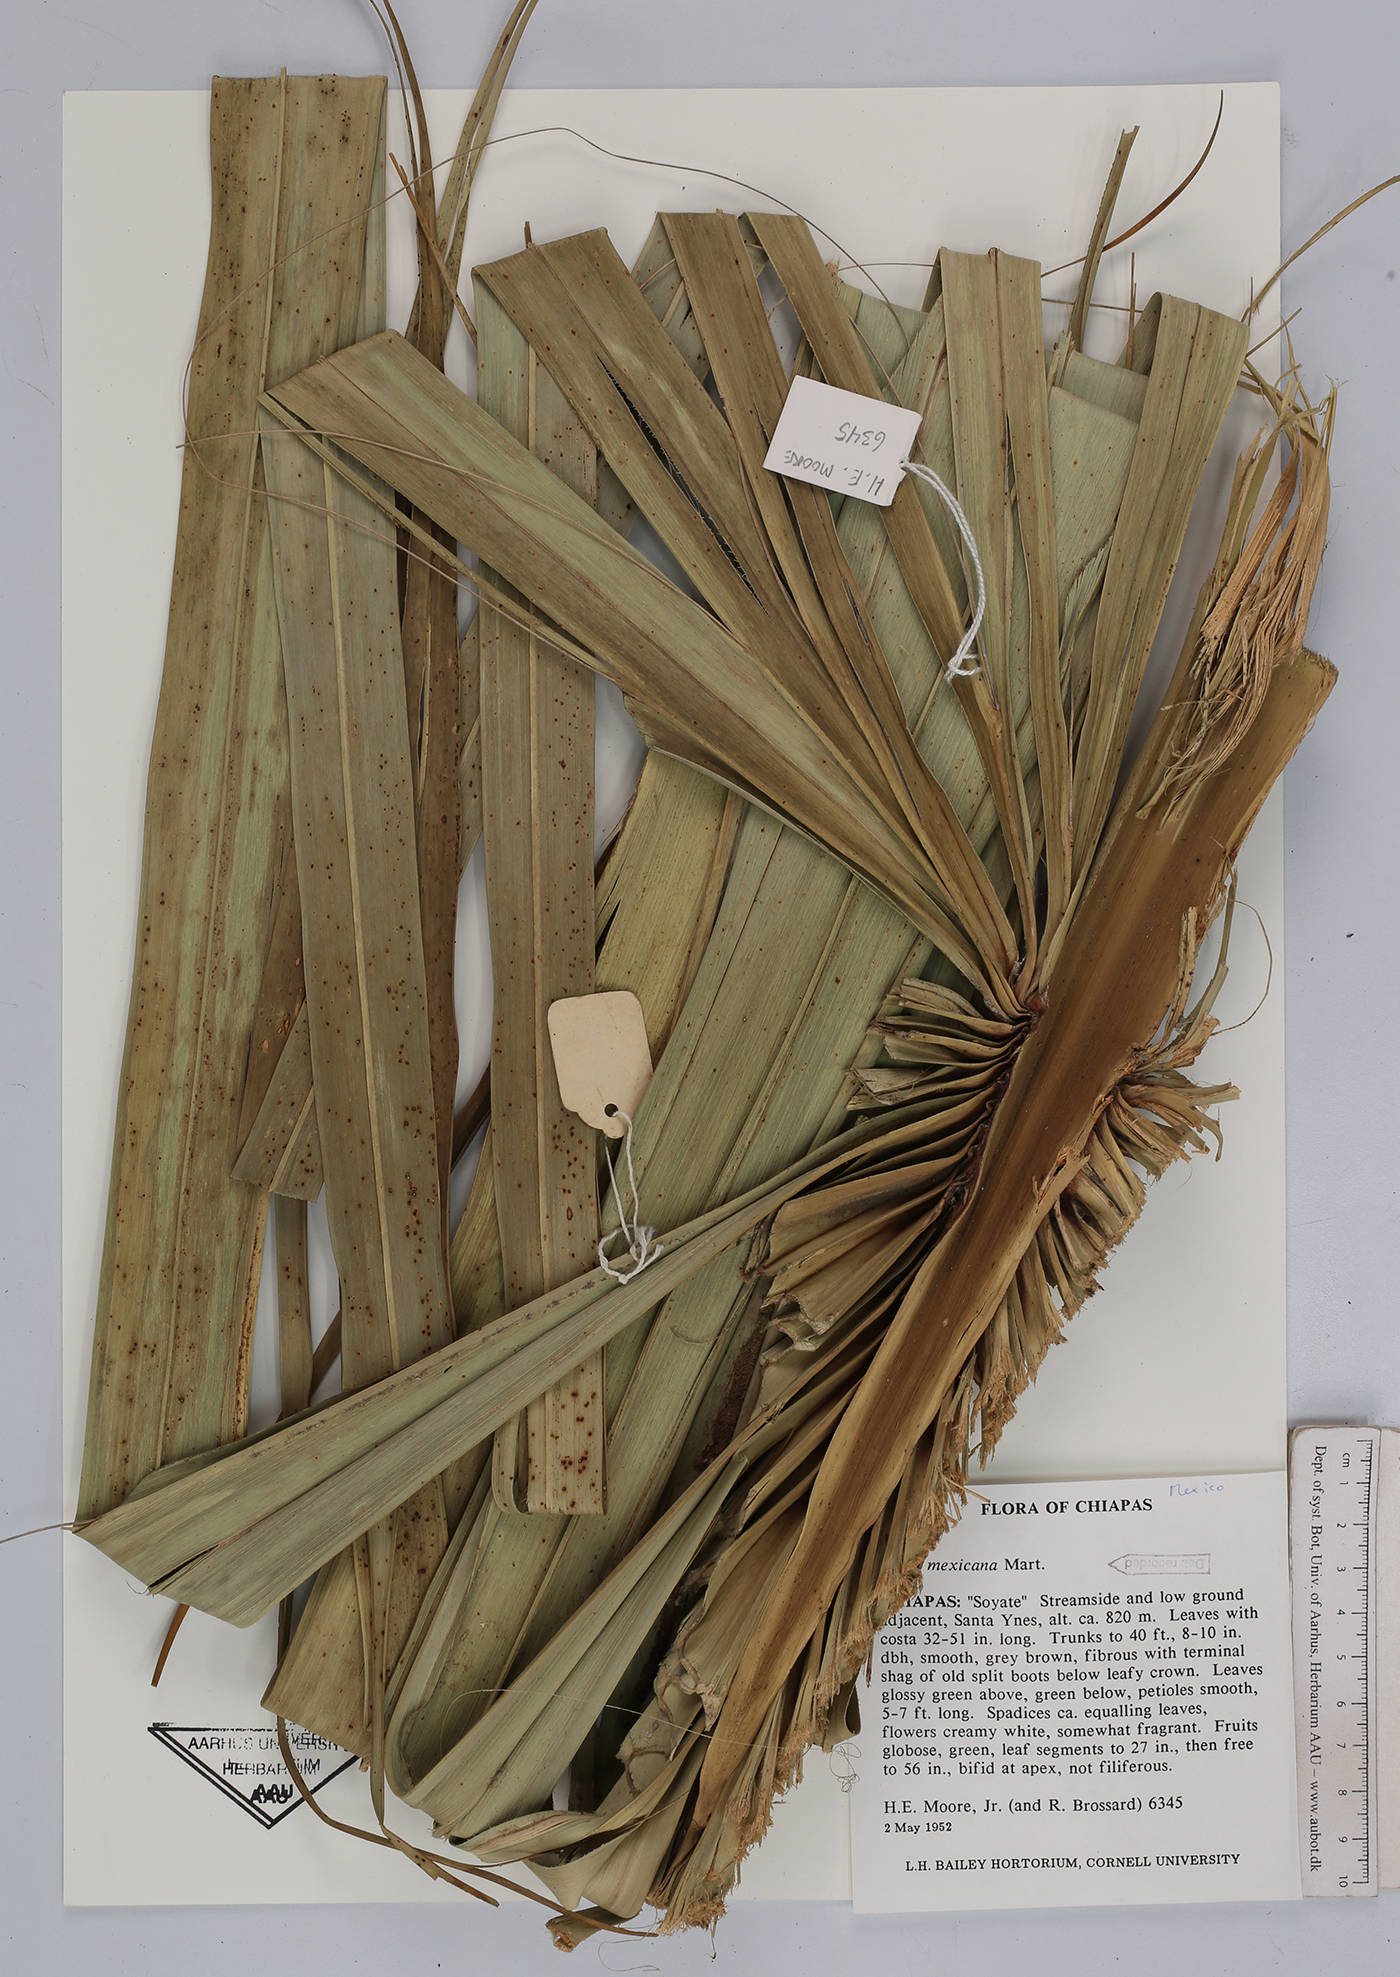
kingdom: Plantae
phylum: Tracheophyta
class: Liliopsida
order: Arecales
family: Arecaceae
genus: Sabal
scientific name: Sabal mexicana
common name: Texas palmetto
